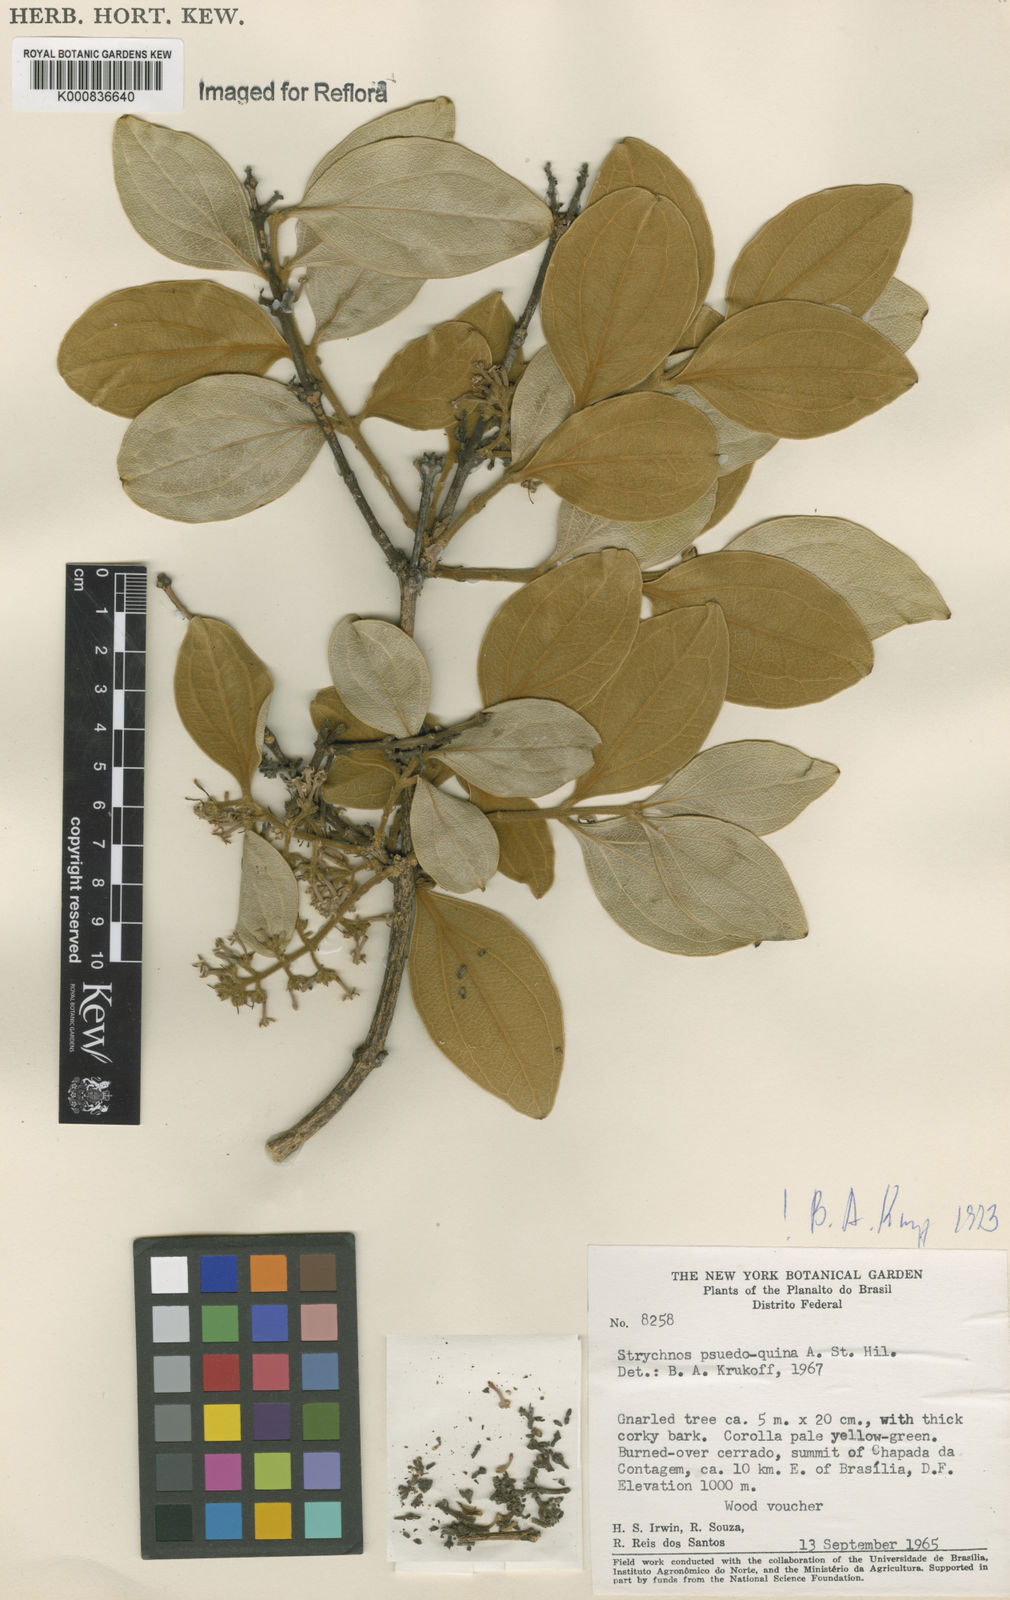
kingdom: Plantae
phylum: Tracheophyta
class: Magnoliopsida
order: Gentianales
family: Loganiaceae
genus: Strychnos
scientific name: Strychnos pseudoquina
